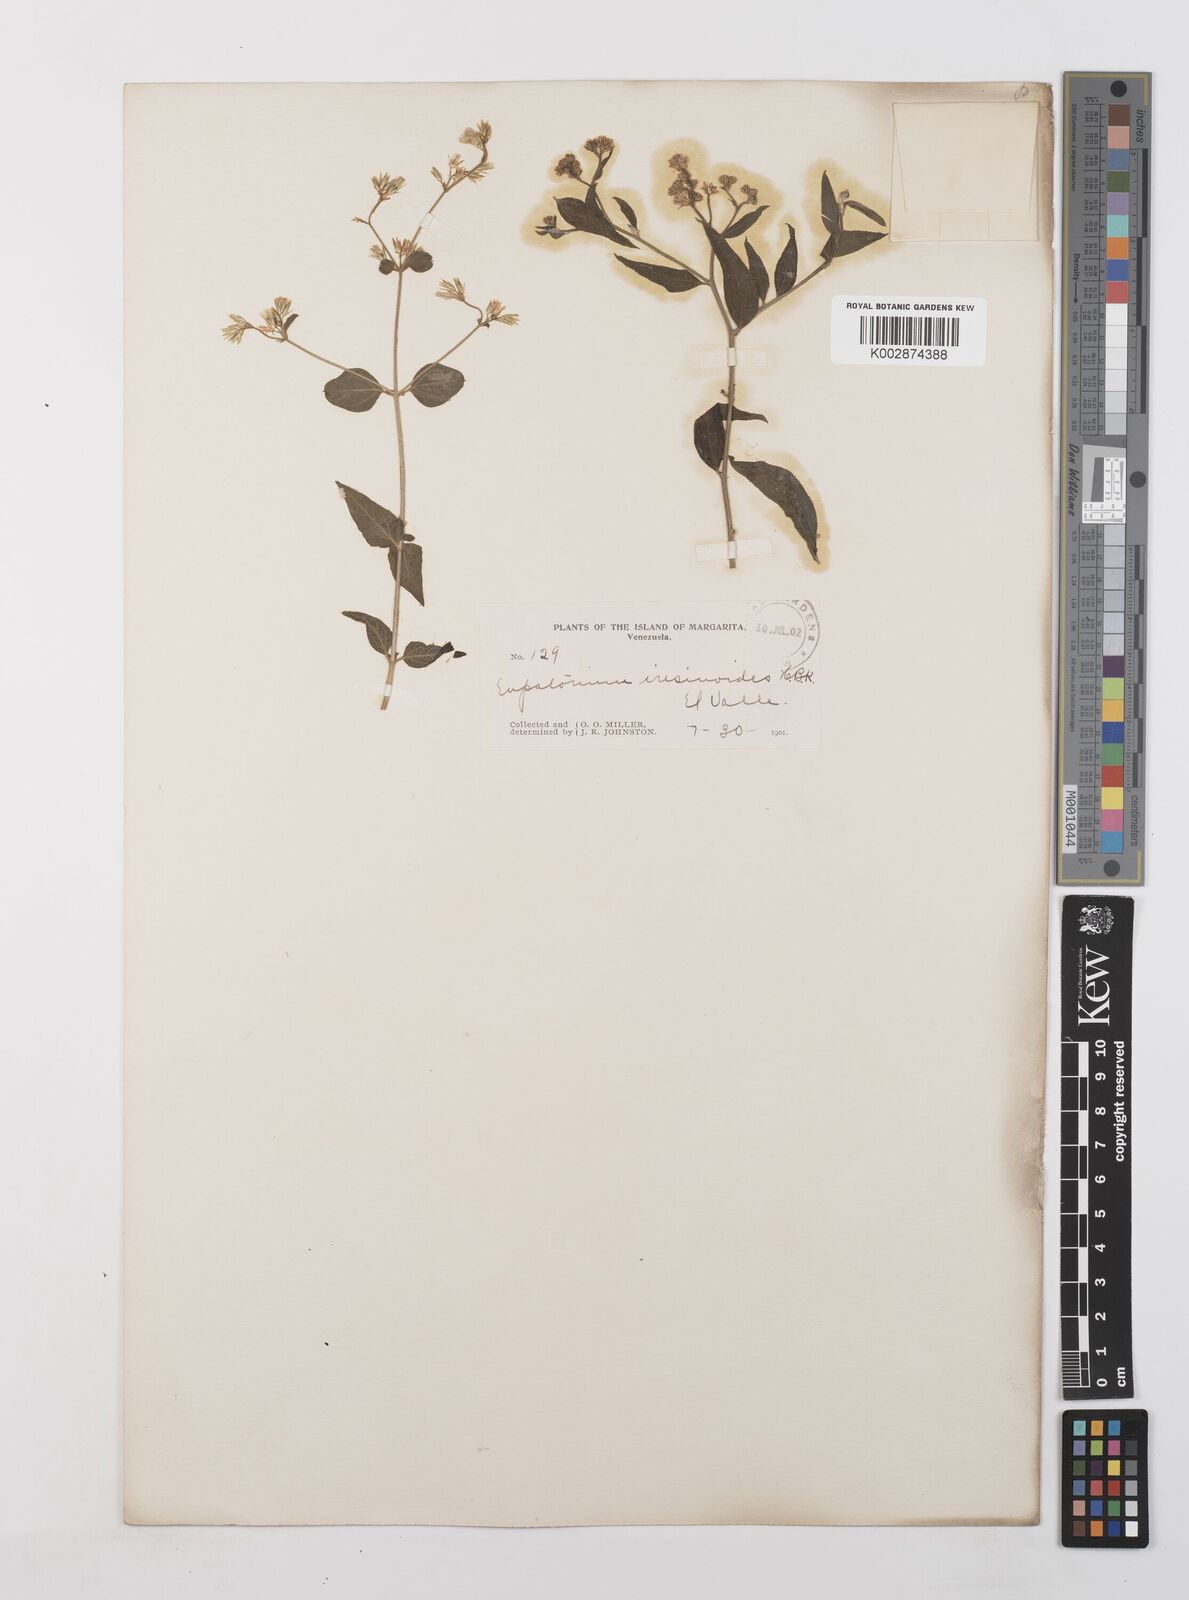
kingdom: Plantae
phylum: Tracheophyta
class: Magnoliopsida
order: Asterales
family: Asteraceae
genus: Condylidium
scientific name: Condylidium iresinoides
